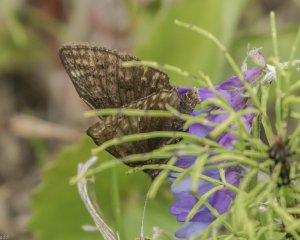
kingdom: Animalia
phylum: Arthropoda
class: Insecta
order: Lepidoptera
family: Hesperiidae
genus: Erynnis
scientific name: Erynnis icelus
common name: Dreamy Duskywing
